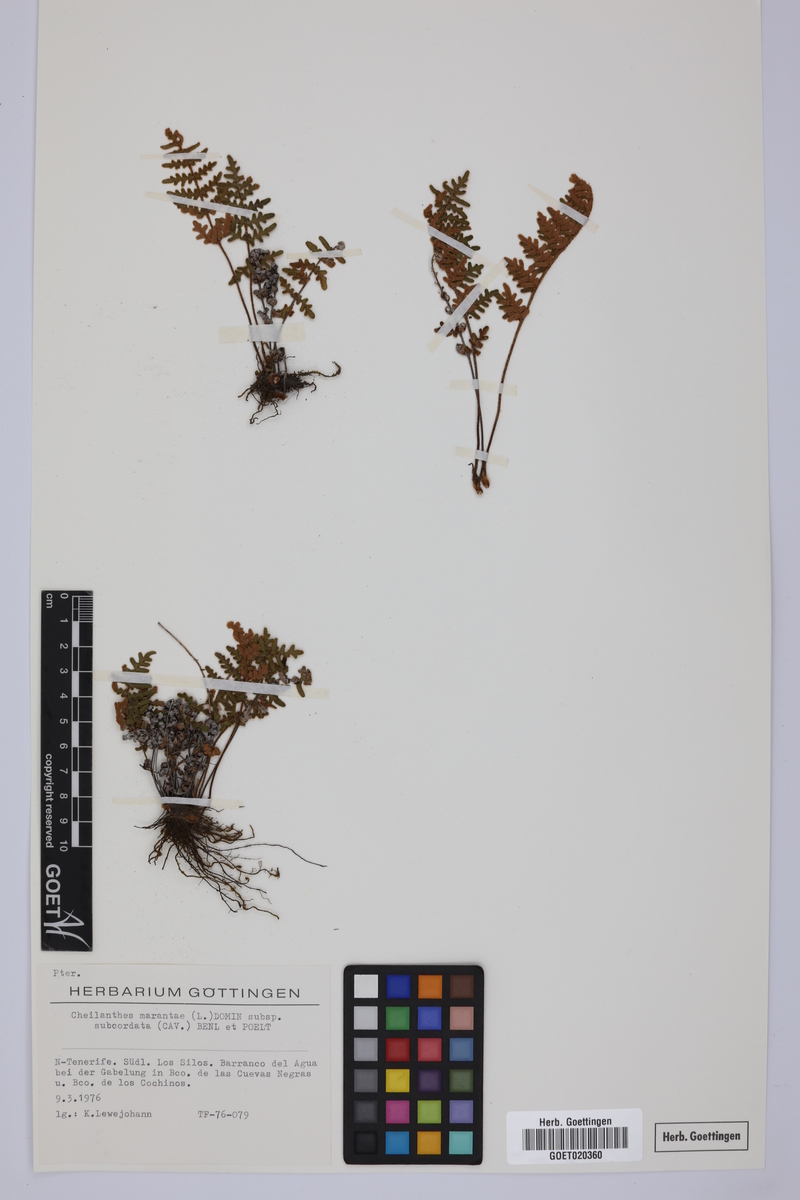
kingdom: Plantae
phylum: Tracheophyta
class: Polypodiopsida
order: Polypodiales
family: Pteridaceae
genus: Paragymnopteris
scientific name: Paragymnopteris marantae
